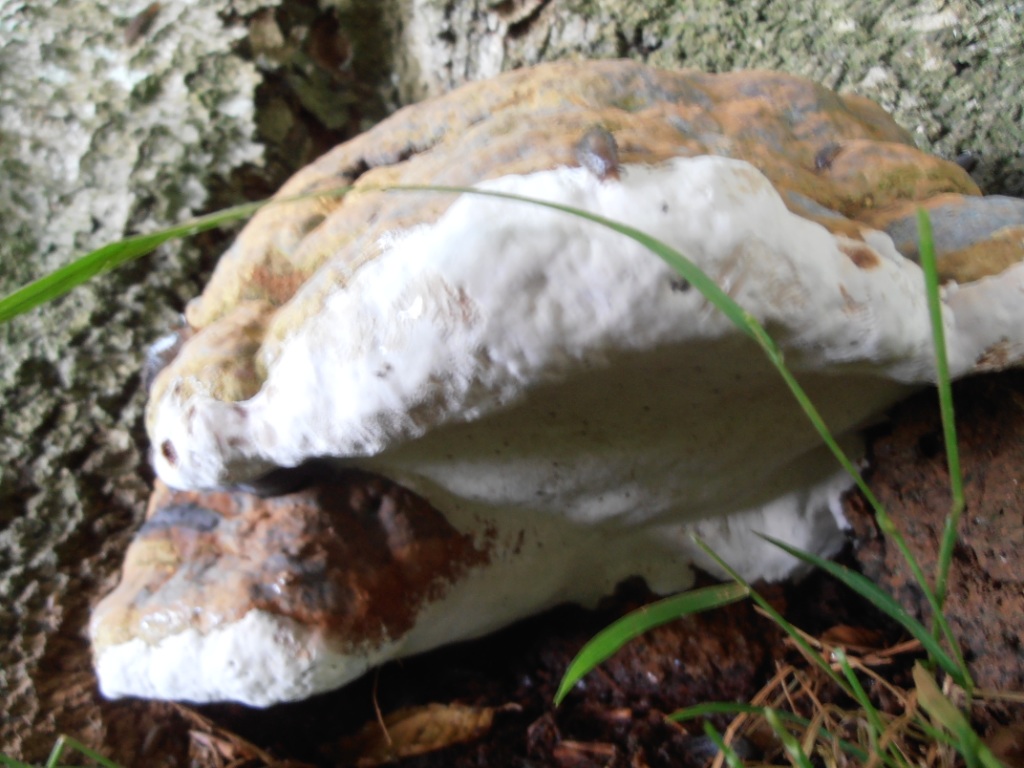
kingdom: Fungi
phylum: Basidiomycota
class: Agaricomycetes
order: Polyporales
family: Polyporaceae
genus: Ganoderma
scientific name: Ganoderma pfeifferi
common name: kobberrød lakporesvamp
